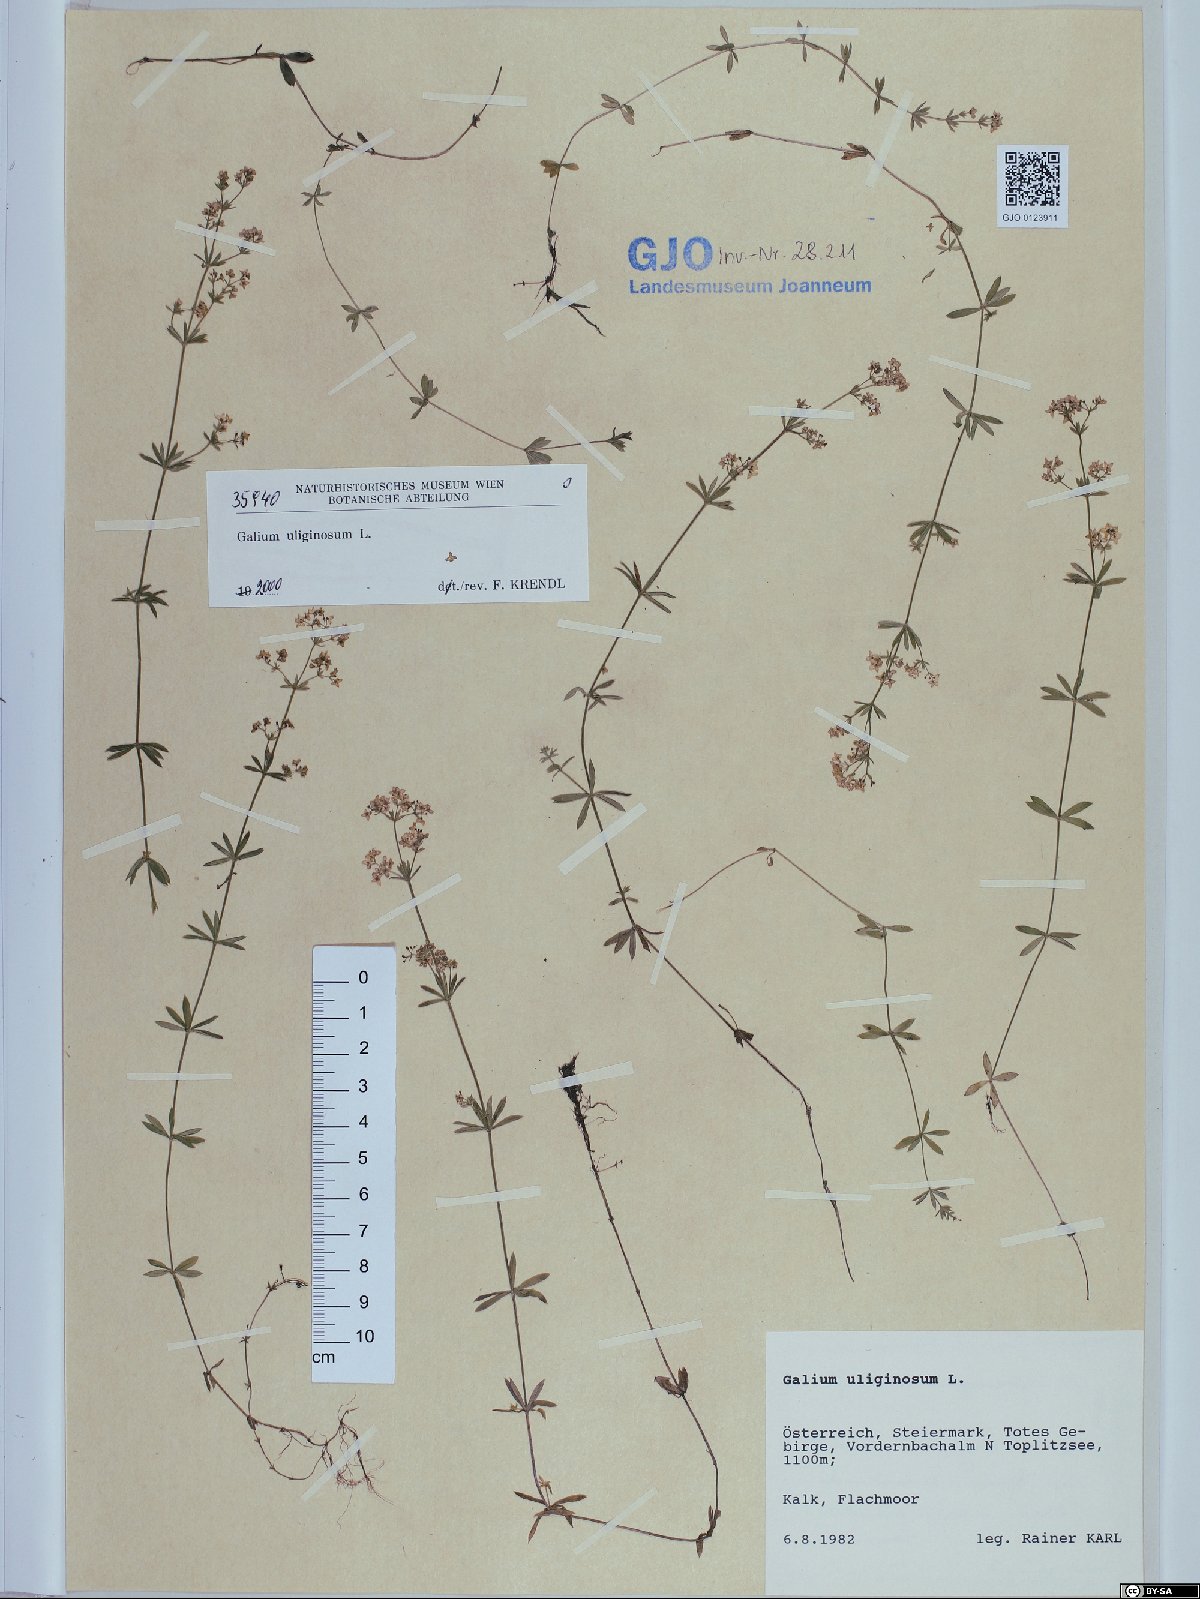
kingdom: Plantae
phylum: Tracheophyta
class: Magnoliopsida
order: Gentianales
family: Rubiaceae
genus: Galium
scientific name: Galium uliginosum
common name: Fen bedstraw
